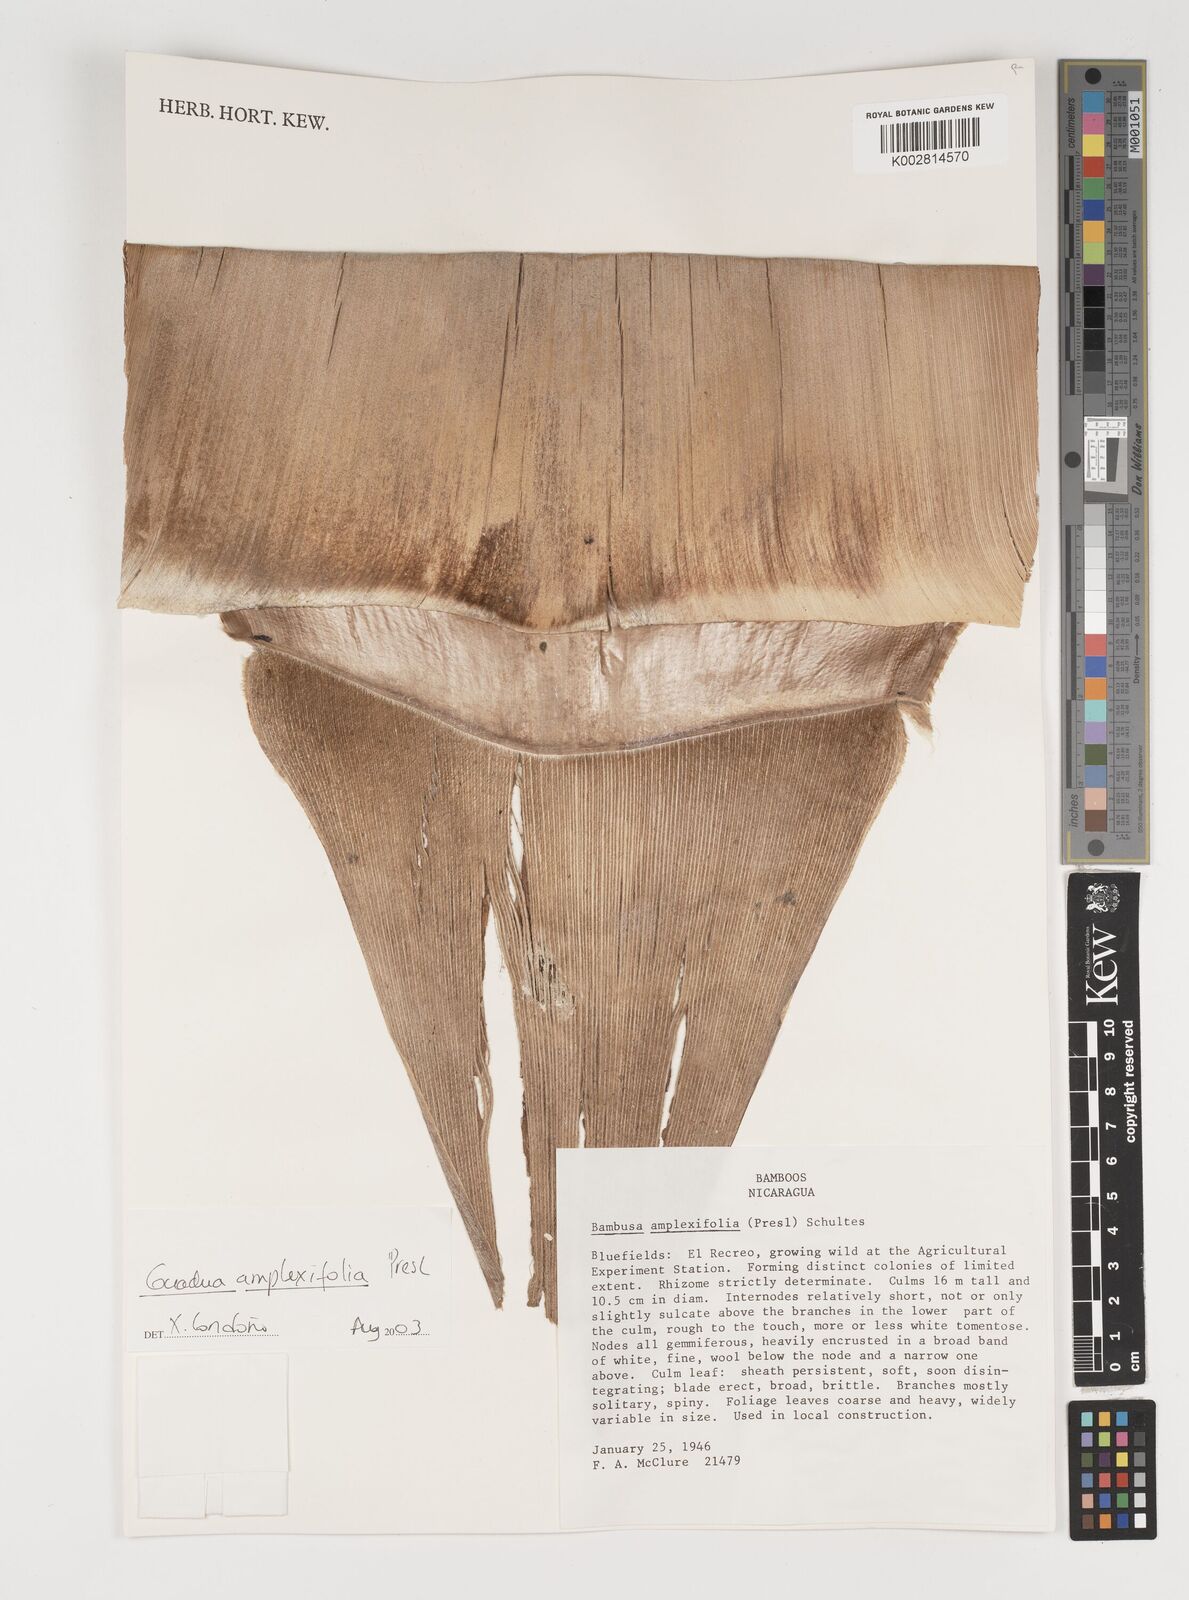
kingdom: Plantae
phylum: Tracheophyta
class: Liliopsida
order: Poales
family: Poaceae
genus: Guadua
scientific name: Guadua amplexifolia
